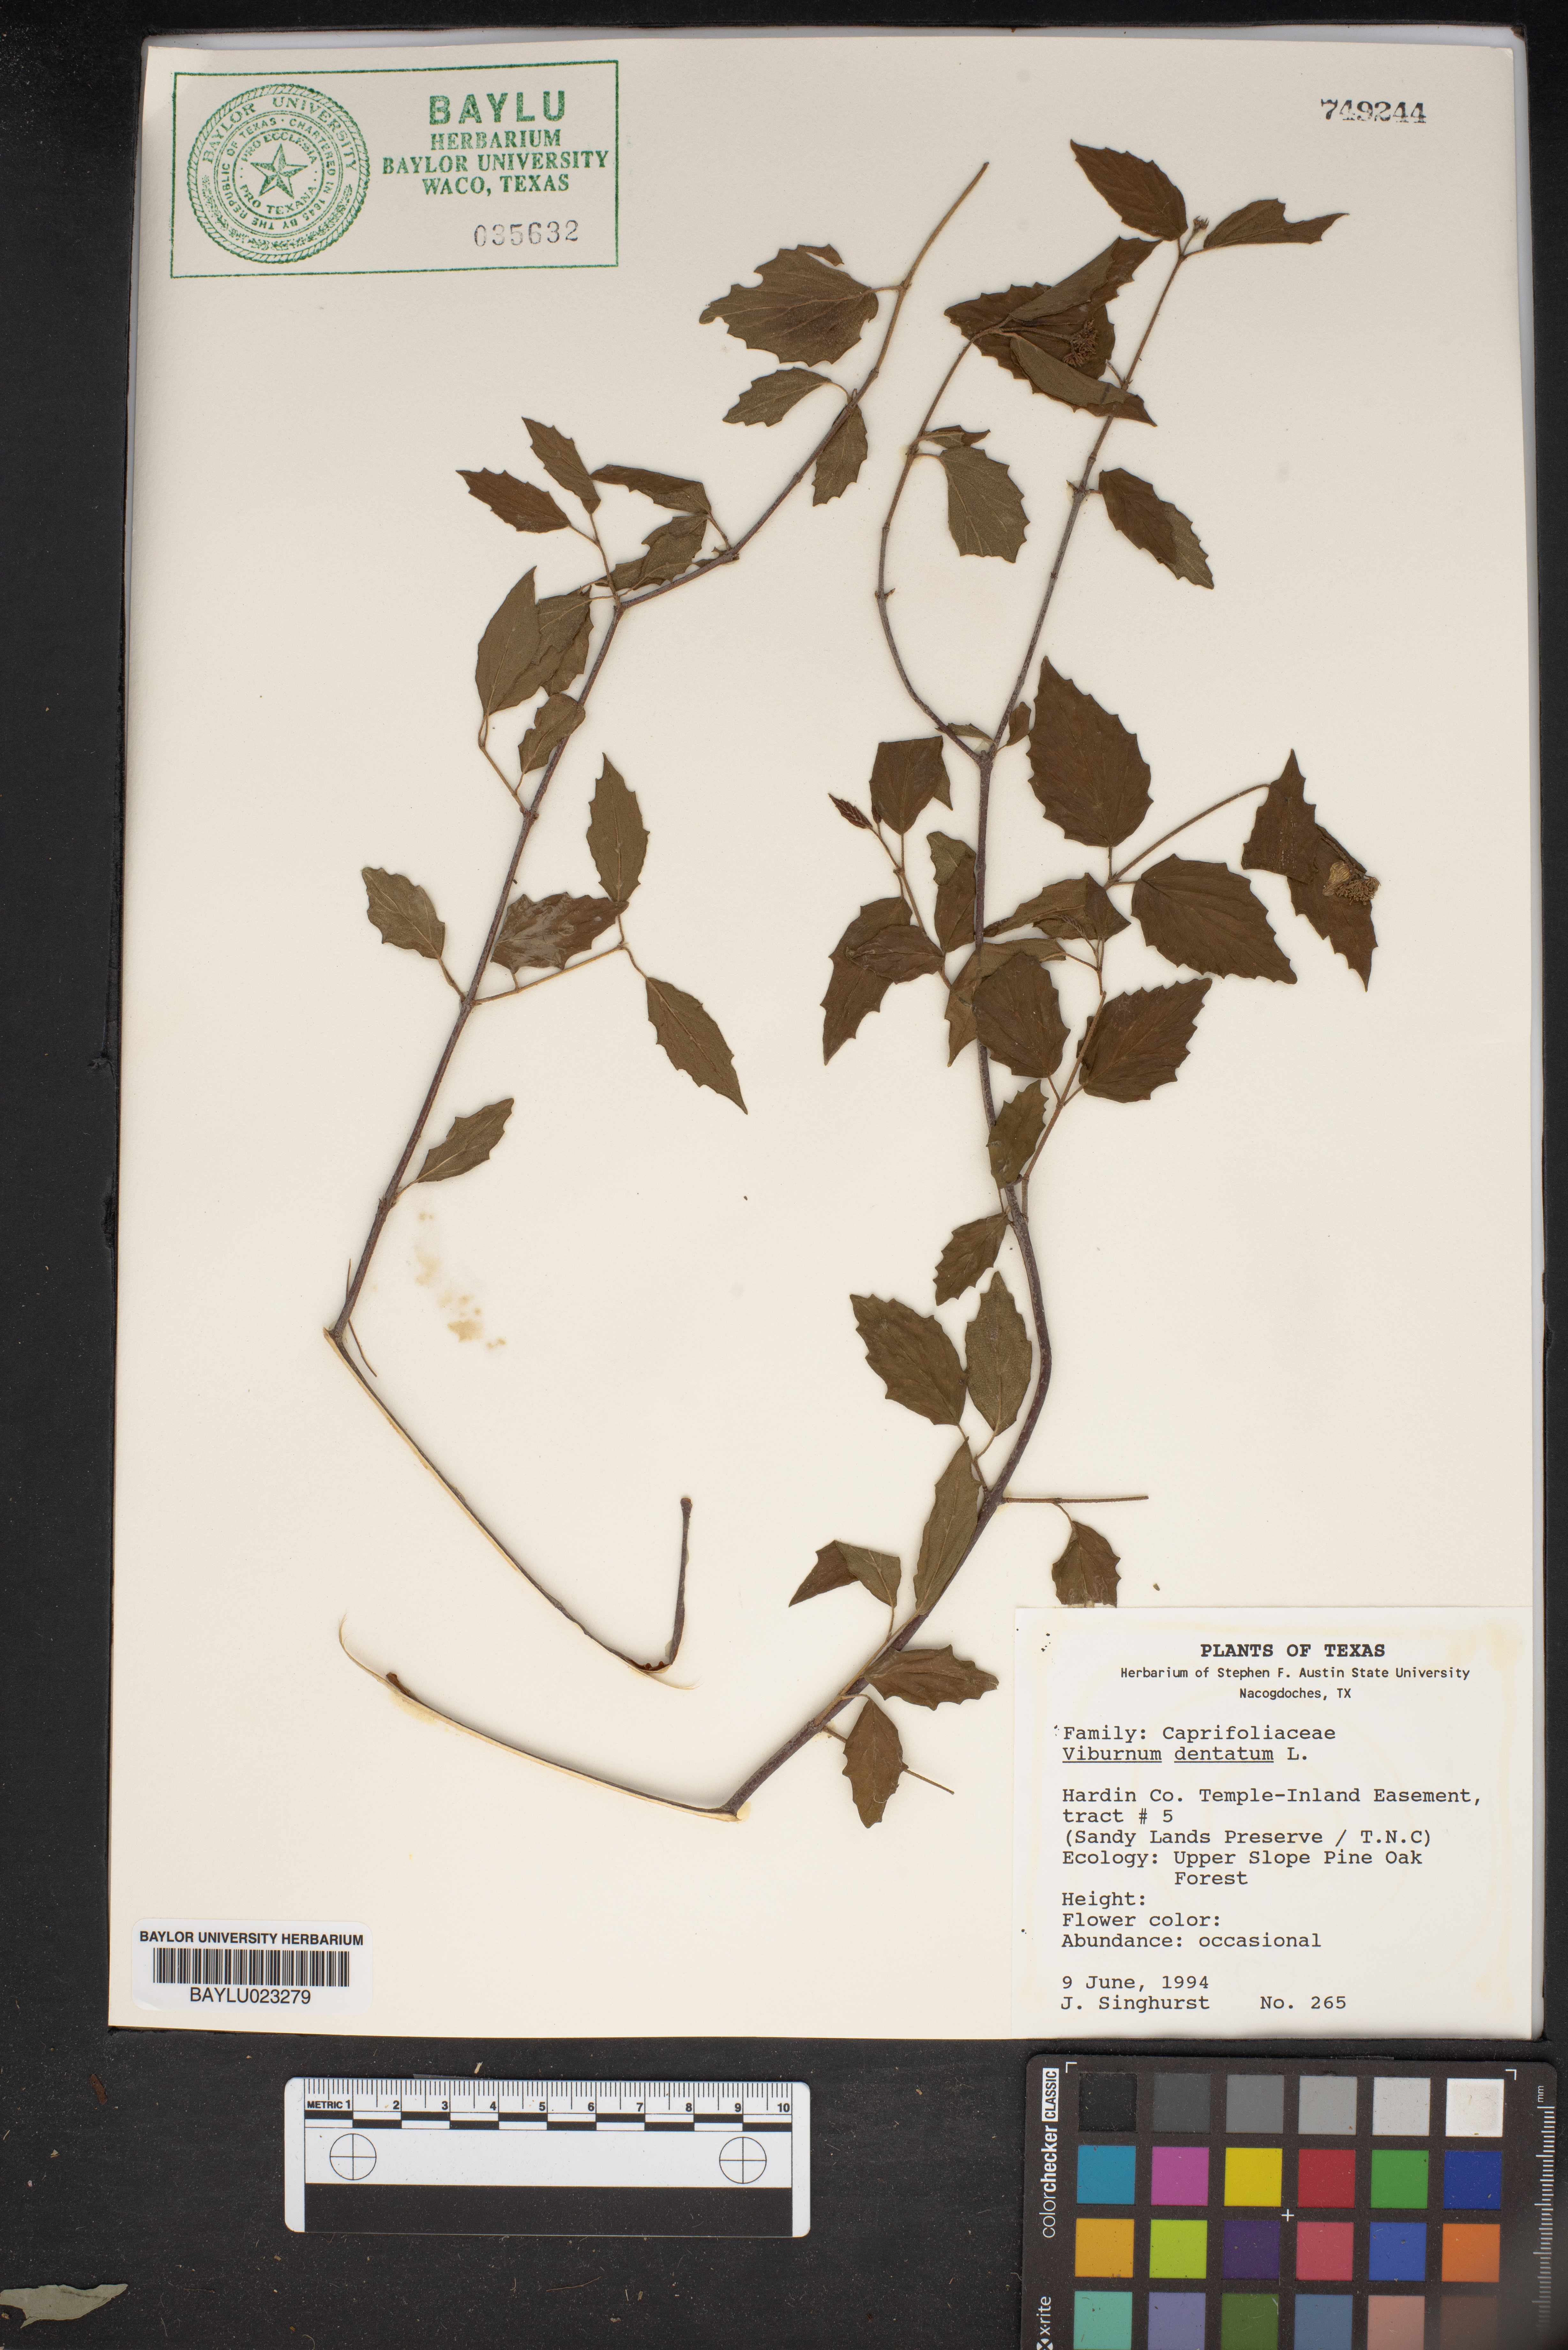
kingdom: Plantae
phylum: Tracheophyta
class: Magnoliopsida
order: Dipsacales
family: Viburnaceae
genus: Viburnum
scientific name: Viburnum dentatum
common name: Arrow-wood
